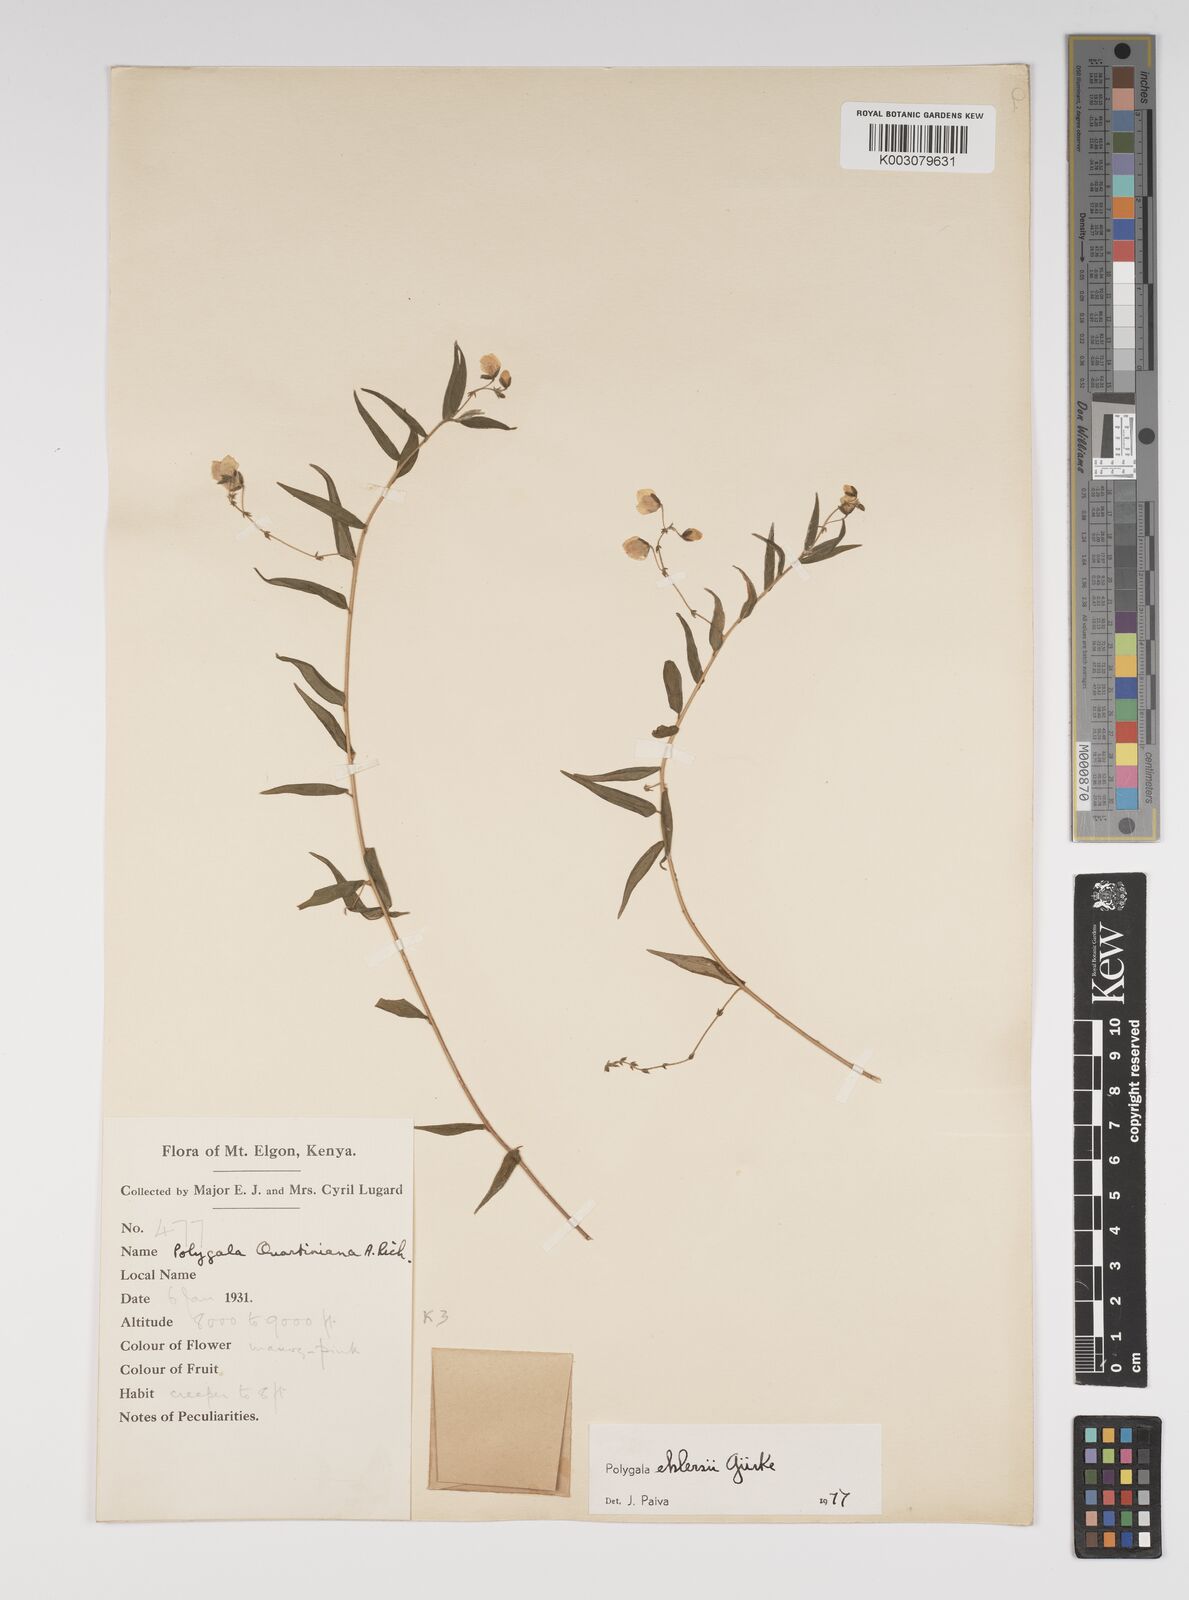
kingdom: Plantae
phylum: Tracheophyta
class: Magnoliopsida
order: Fabales
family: Polygalaceae
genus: Polygala
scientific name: Polygala ehlersii
